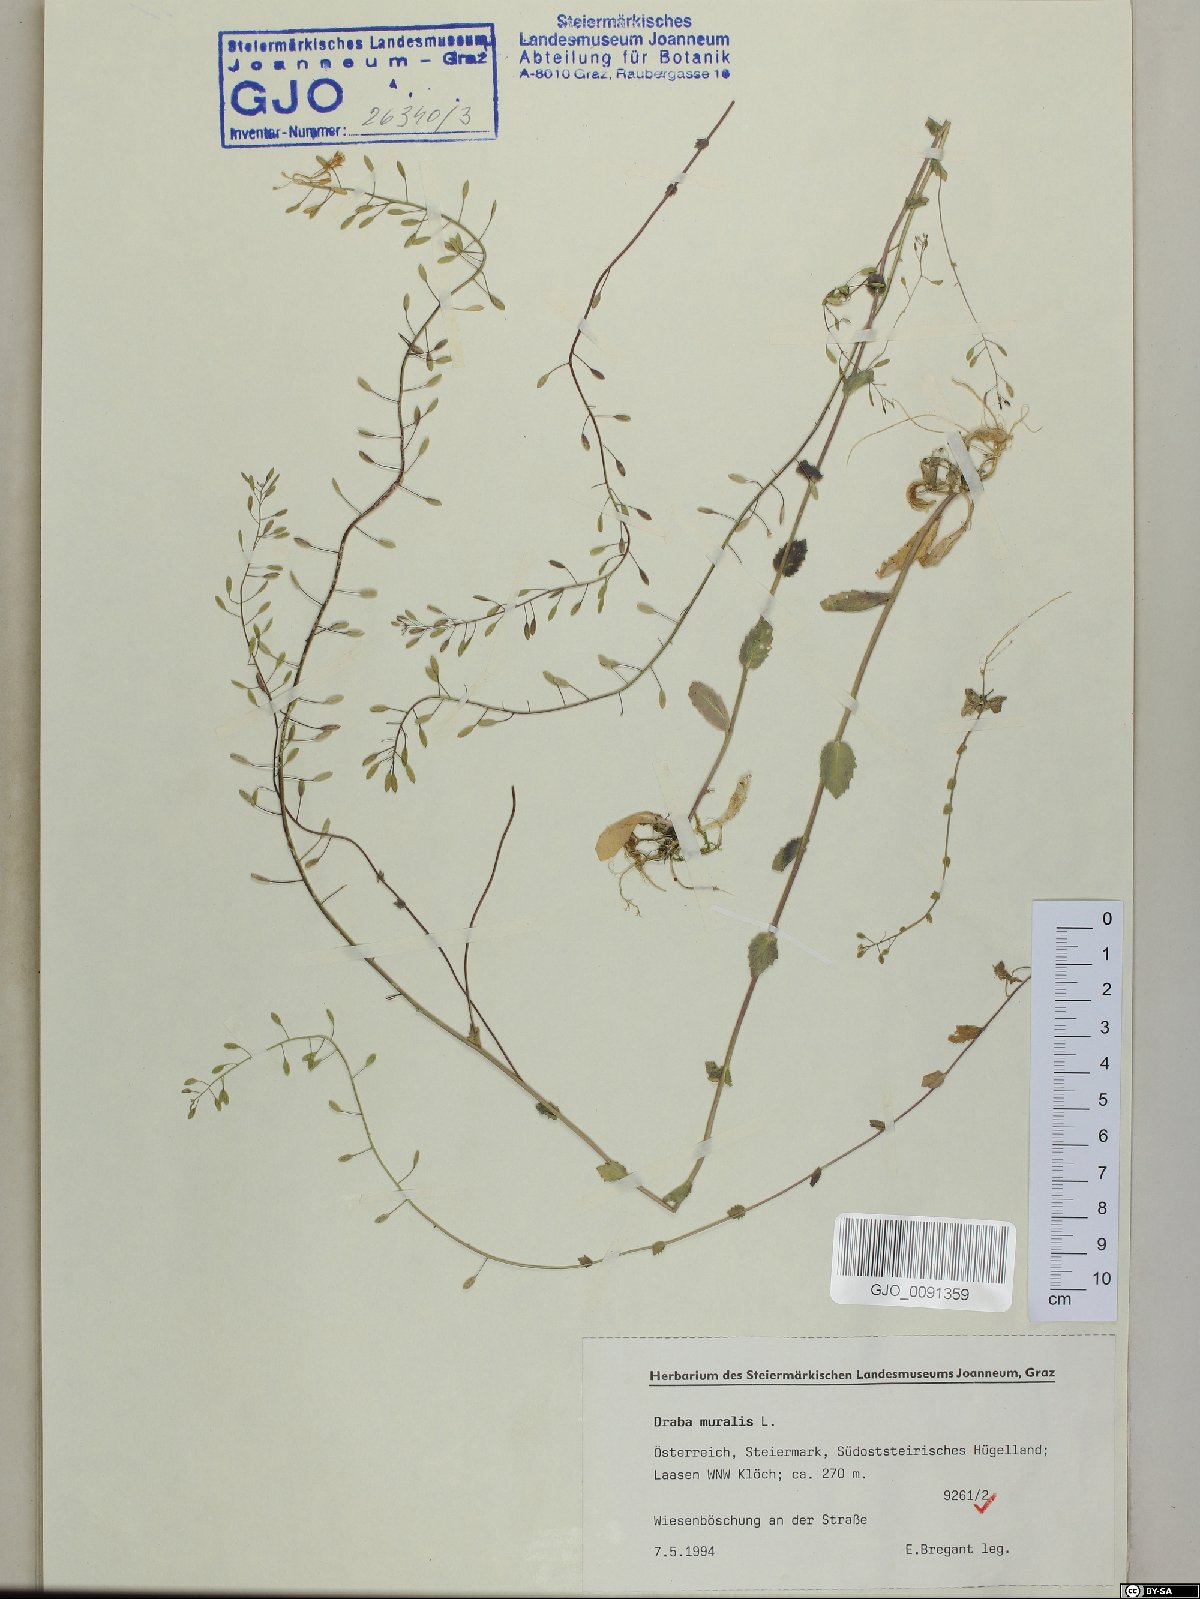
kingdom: Plantae
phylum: Tracheophyta
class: Magnoliopsida
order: Brassicales
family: Brassicaceae
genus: Drabella
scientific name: Drabella muralis
